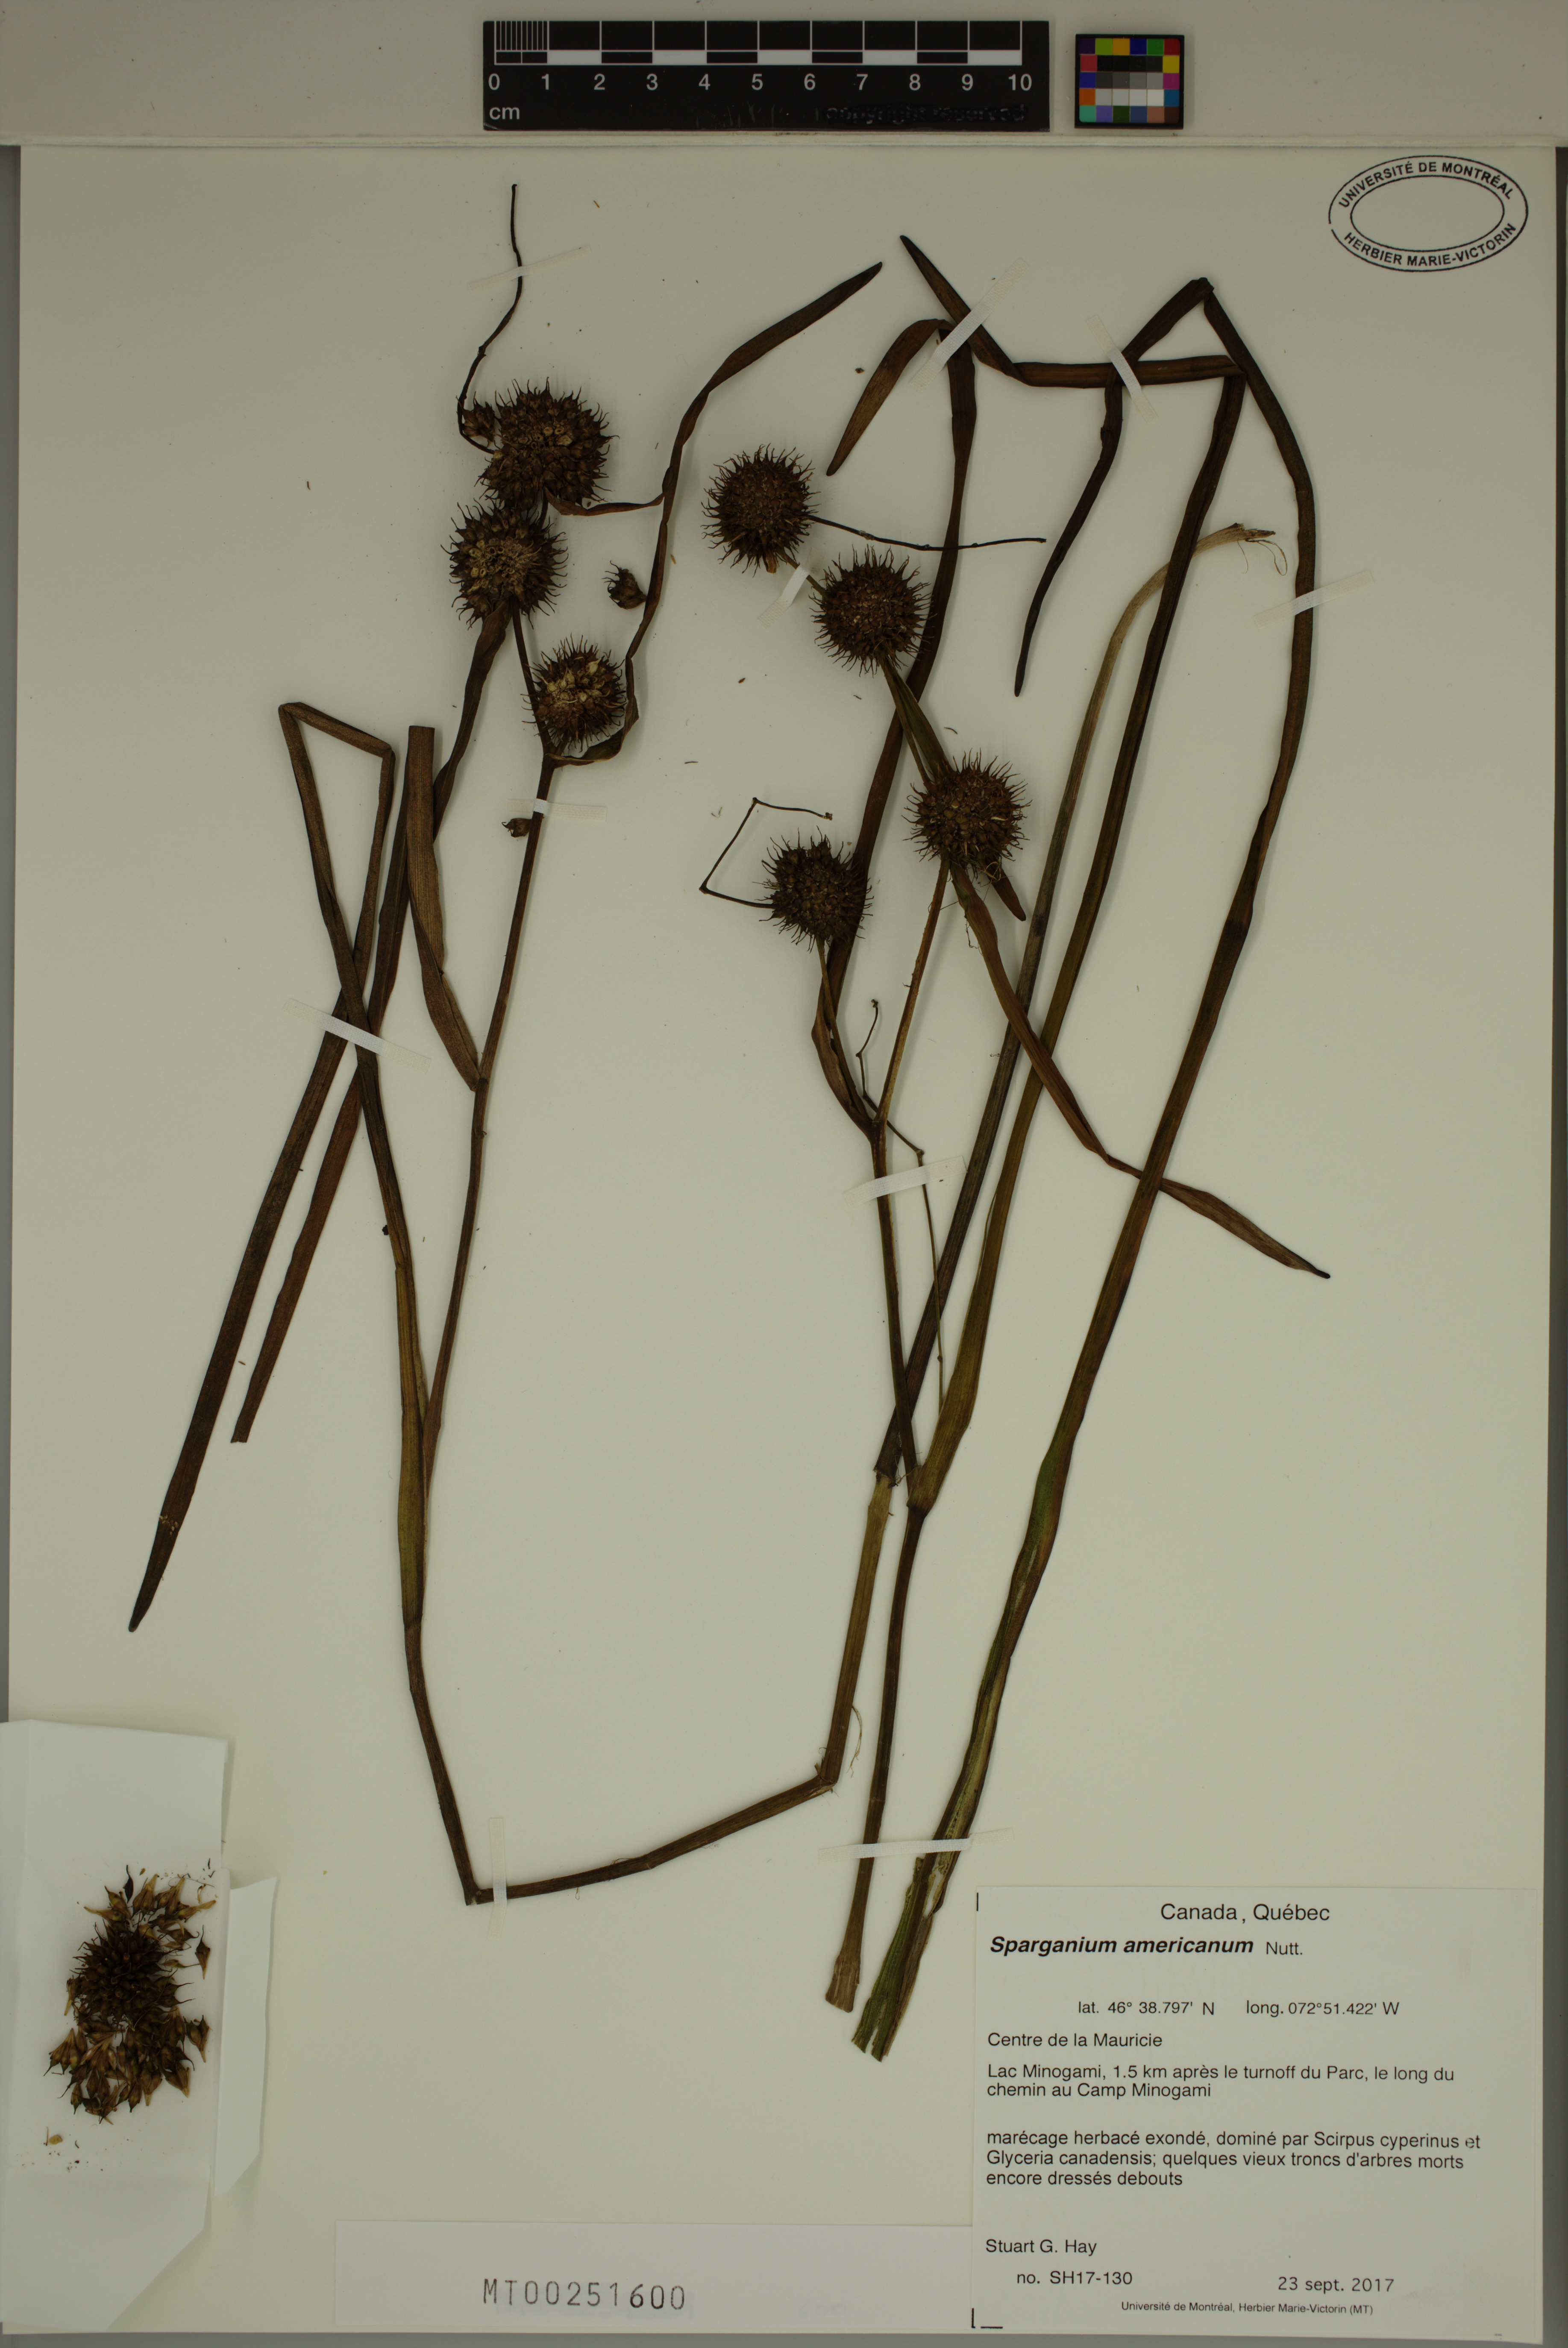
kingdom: Plantae
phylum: Tracheophyta
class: Liliopsida
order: Poales
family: Typhaceae
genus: Sparganium
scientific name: Sparganium americanum
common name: American burreed
